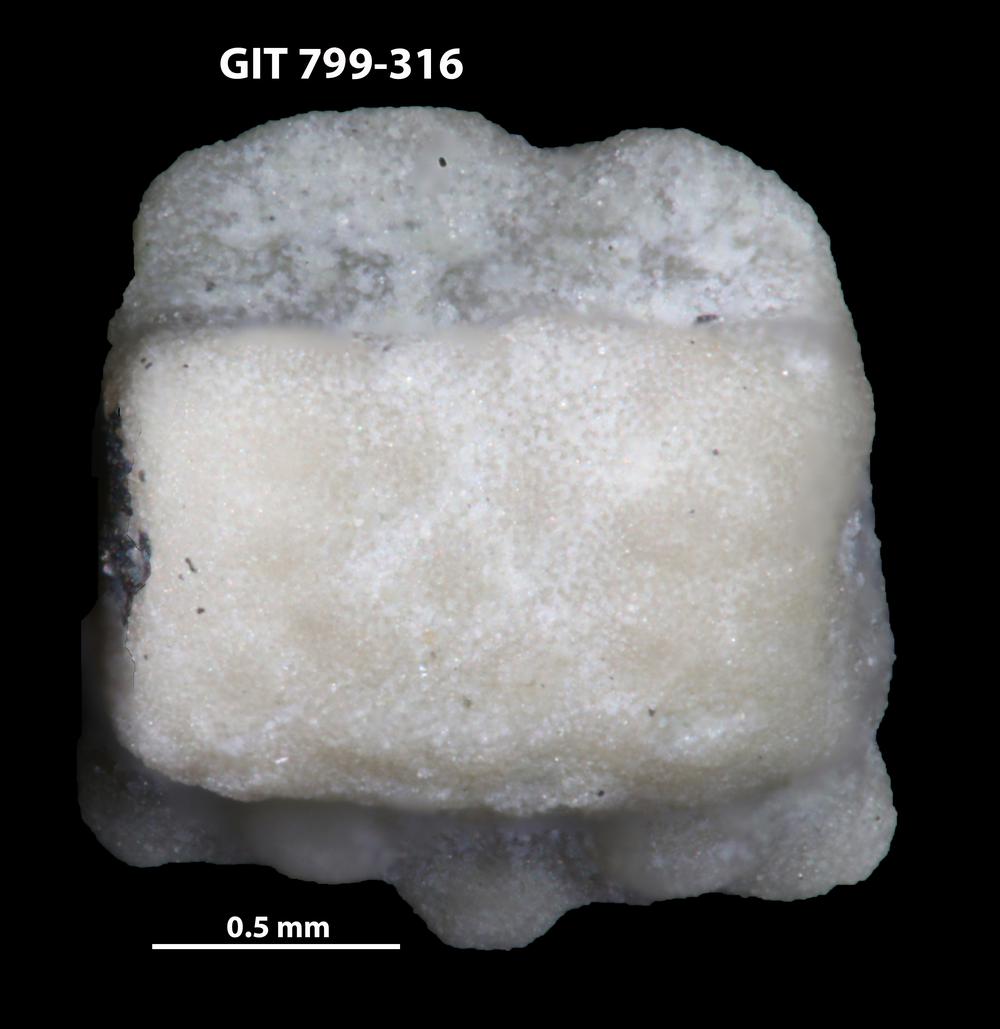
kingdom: Animalia
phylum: Echinodermata
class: Crinoidea
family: Cyclocystoididae
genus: Polytryphocycloides
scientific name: Polytryphocycloides Cyclocystoides lindstroemi
